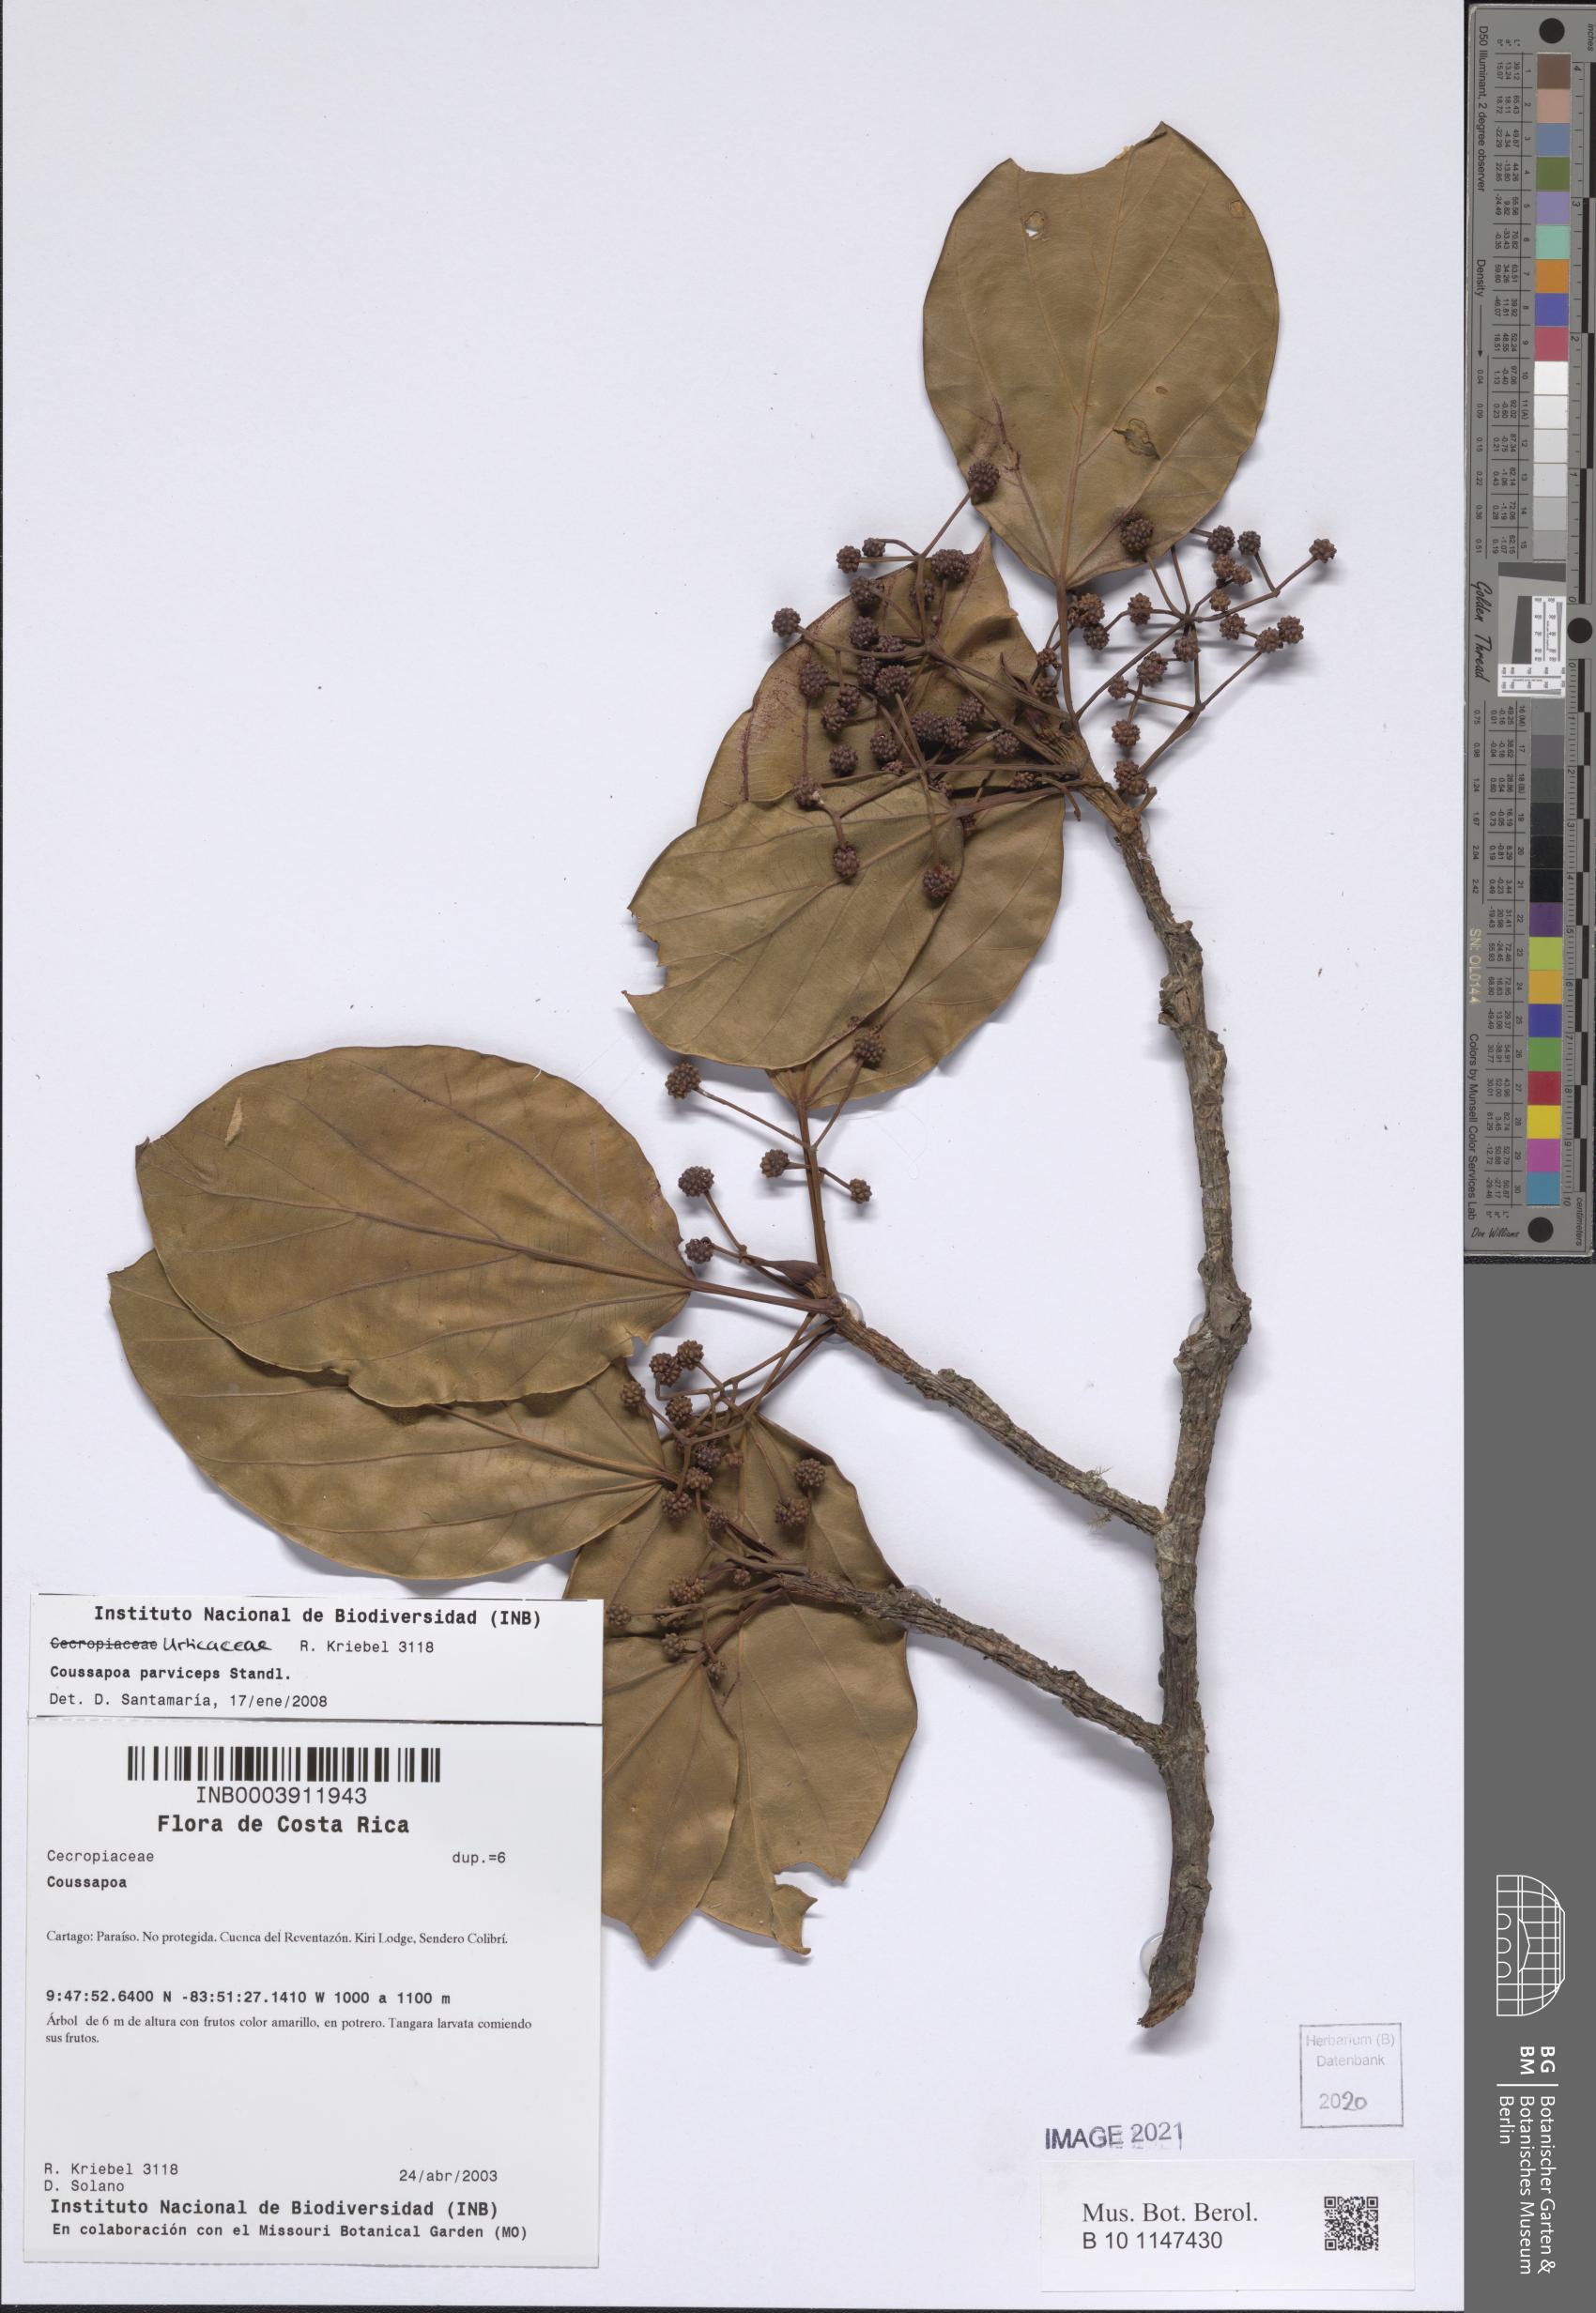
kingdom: Plantae
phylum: Tracheophyta
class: Magnoliopsida
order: Rosales
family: Urticaceae
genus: Coussapoa
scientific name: Coussapoa parviceps
